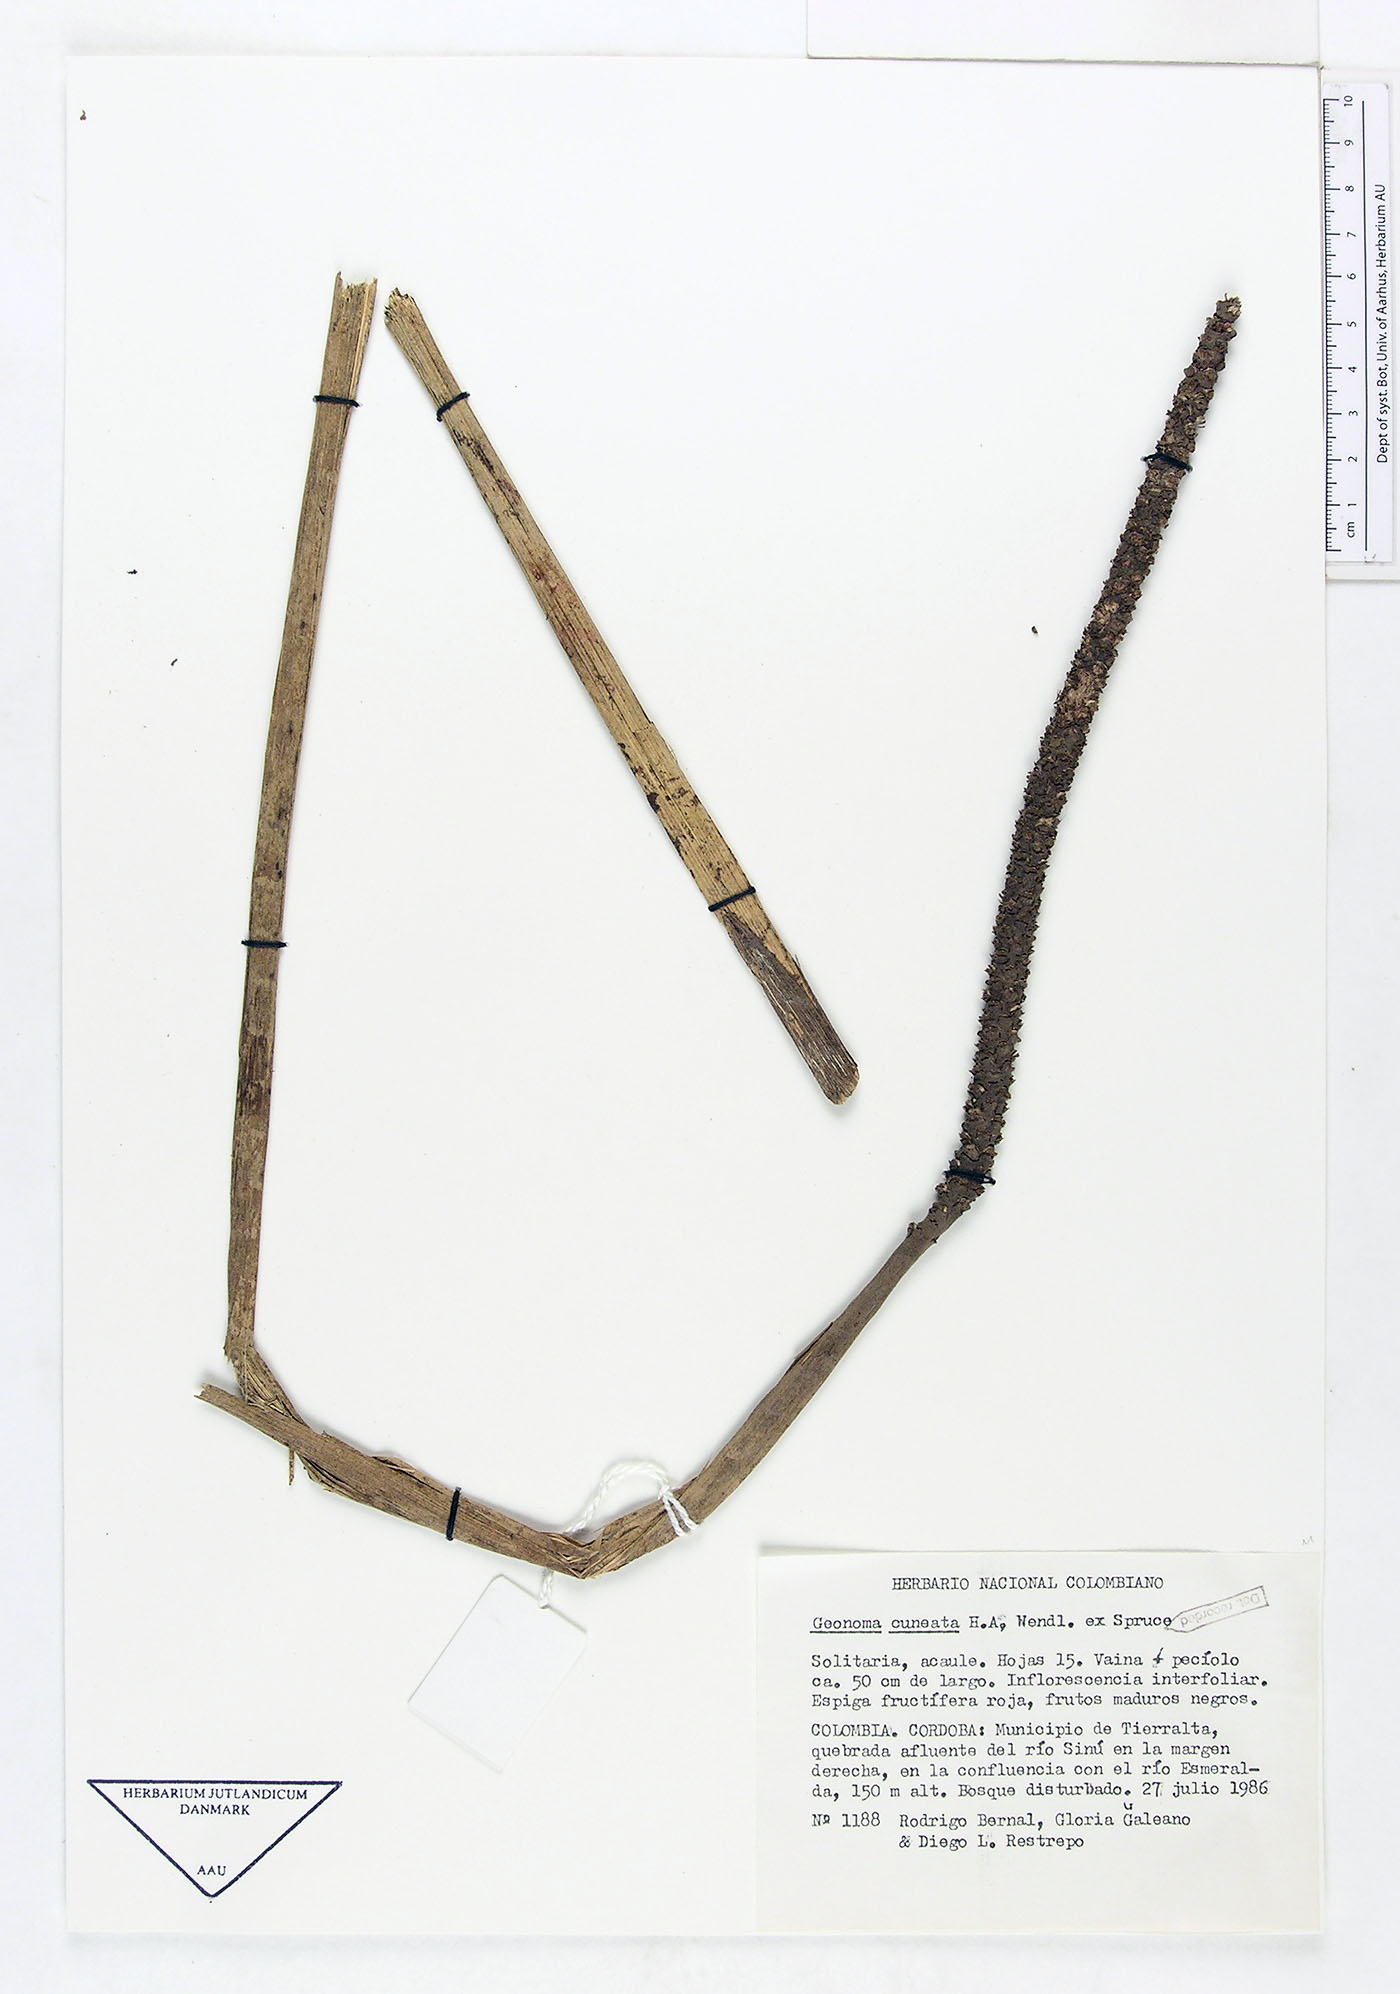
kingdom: Plantae
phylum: Tracheophyta
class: Liliopsida
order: Arecales
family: Arecaceae
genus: Geonoma
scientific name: Geonoma cuneata
